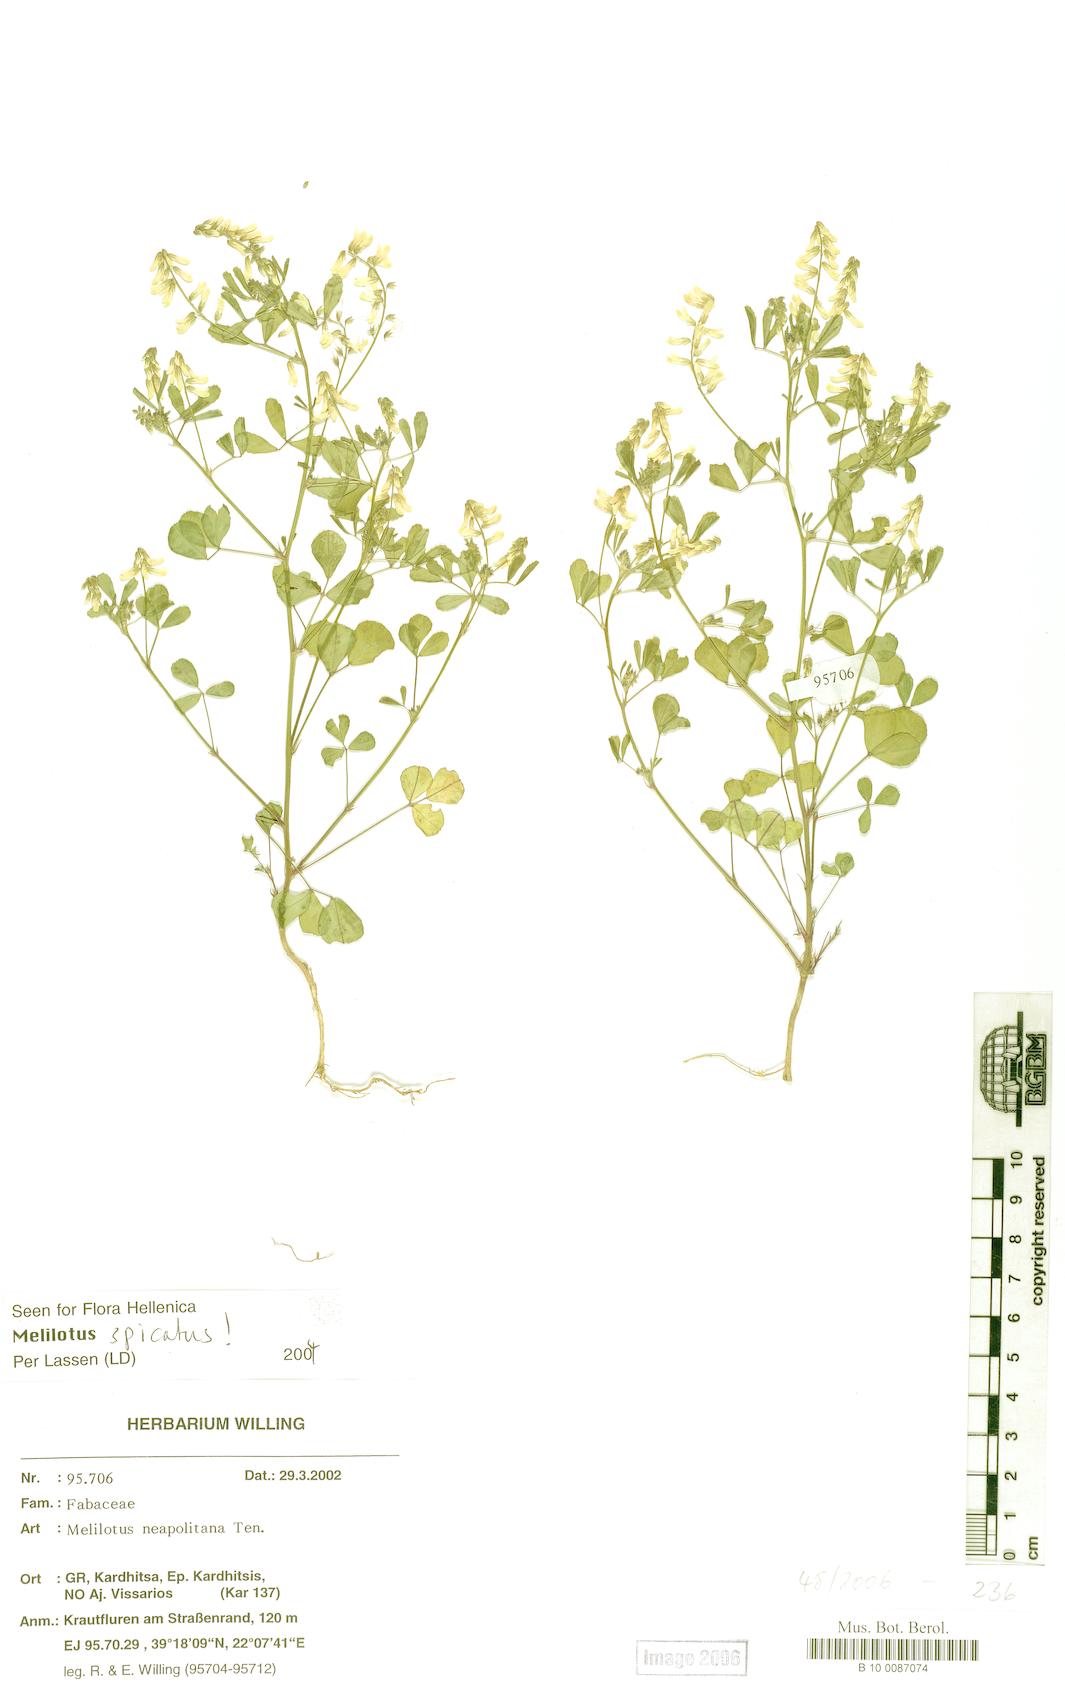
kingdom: Plantae
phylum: Tracheophyta
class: Magnoliopsida
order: Fabales
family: Fabaceae
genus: Melilotus
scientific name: Melilotus neapolitanus
